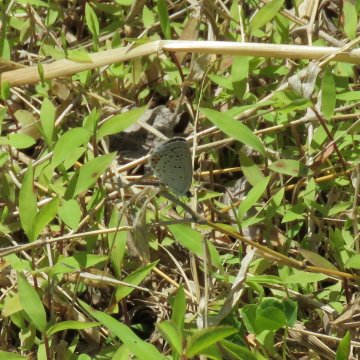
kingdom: Animalia
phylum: Arthropoda
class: Insecta
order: Lepidoptera
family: Lycaenidae
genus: Elkalyce
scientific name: Elkalyce comyntas
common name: Eastern Tailed-Blue
